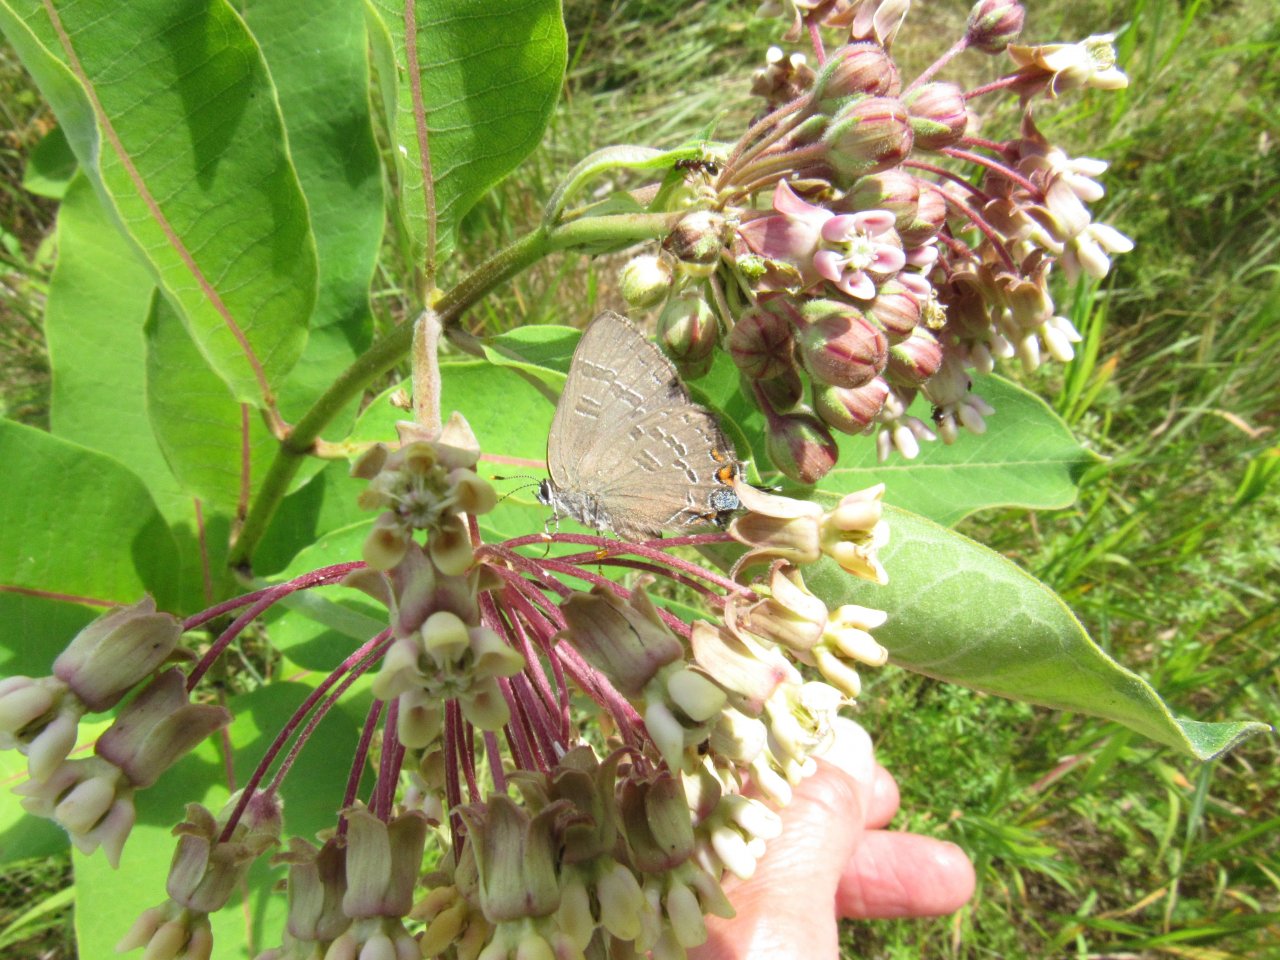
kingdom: Animalia
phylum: Arthropoda
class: Insecta
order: Lepidoptera
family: Lycaenidae
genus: Satyrium
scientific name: Satyrium calanus
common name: Banded Hairstreak
